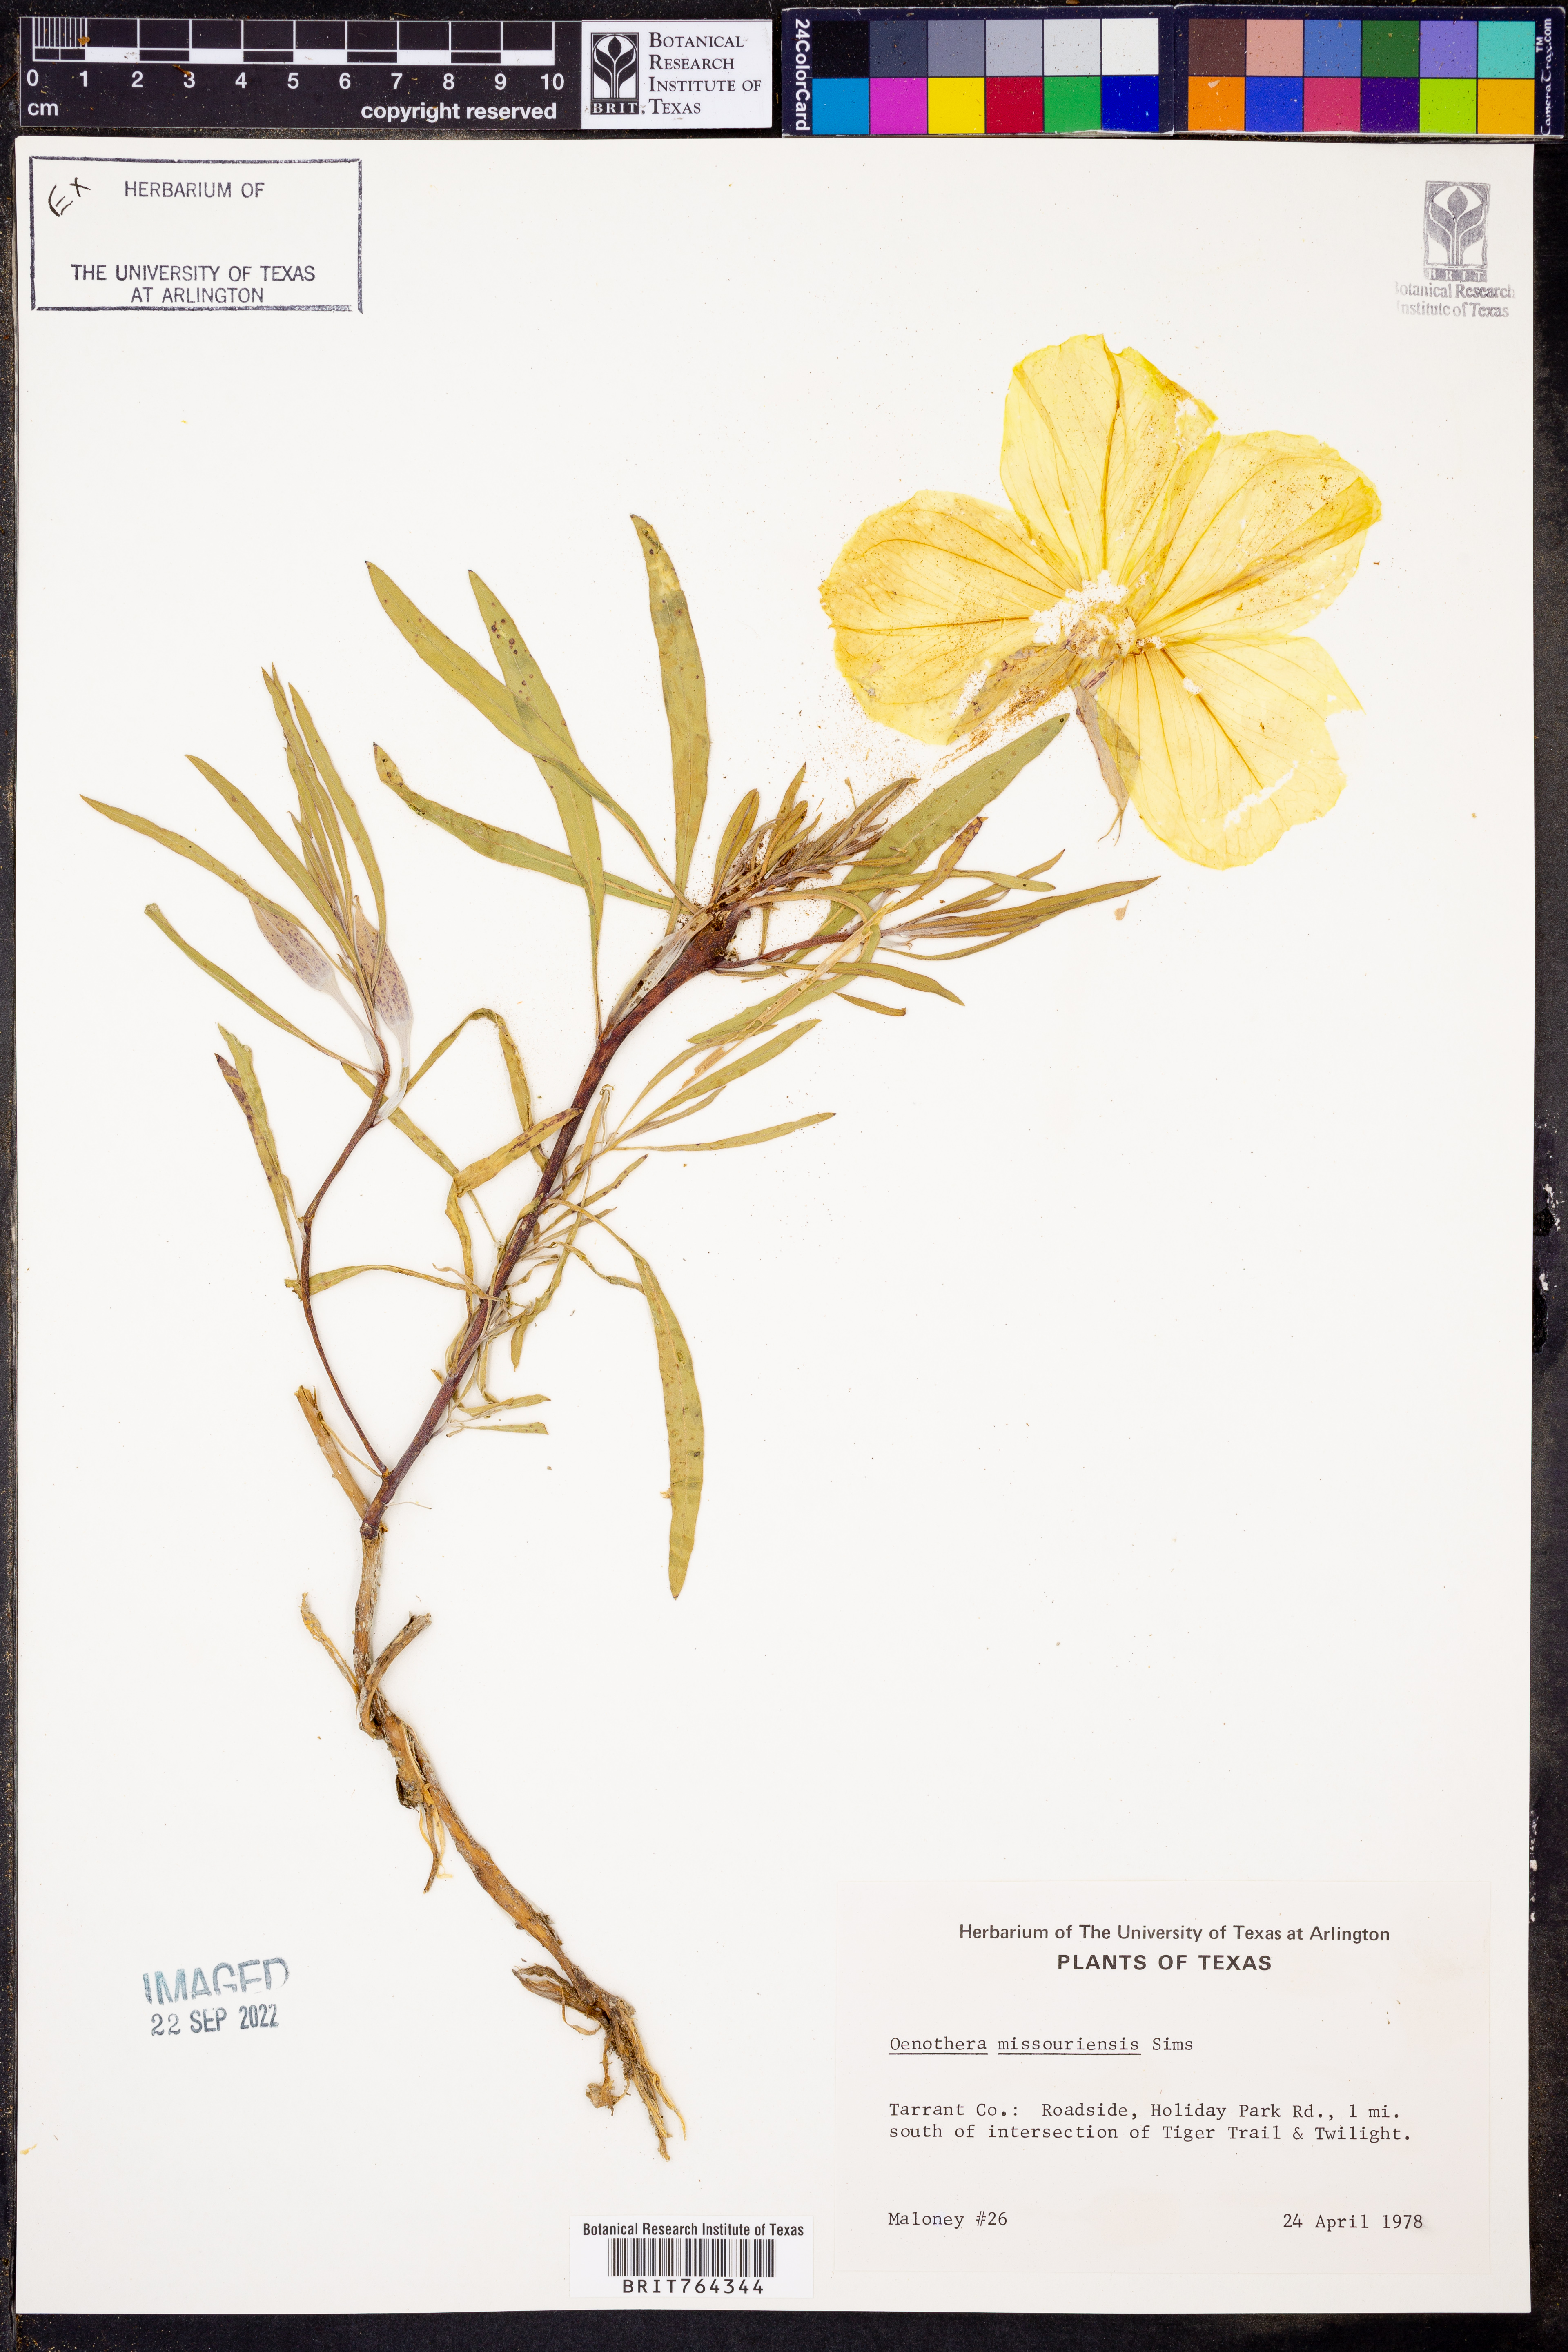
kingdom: Plantae
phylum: Tracheophyta
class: Magnoliopsida
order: Myrtales
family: Onagraceae
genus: Oenothera
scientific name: Oenothera macrocarpa
